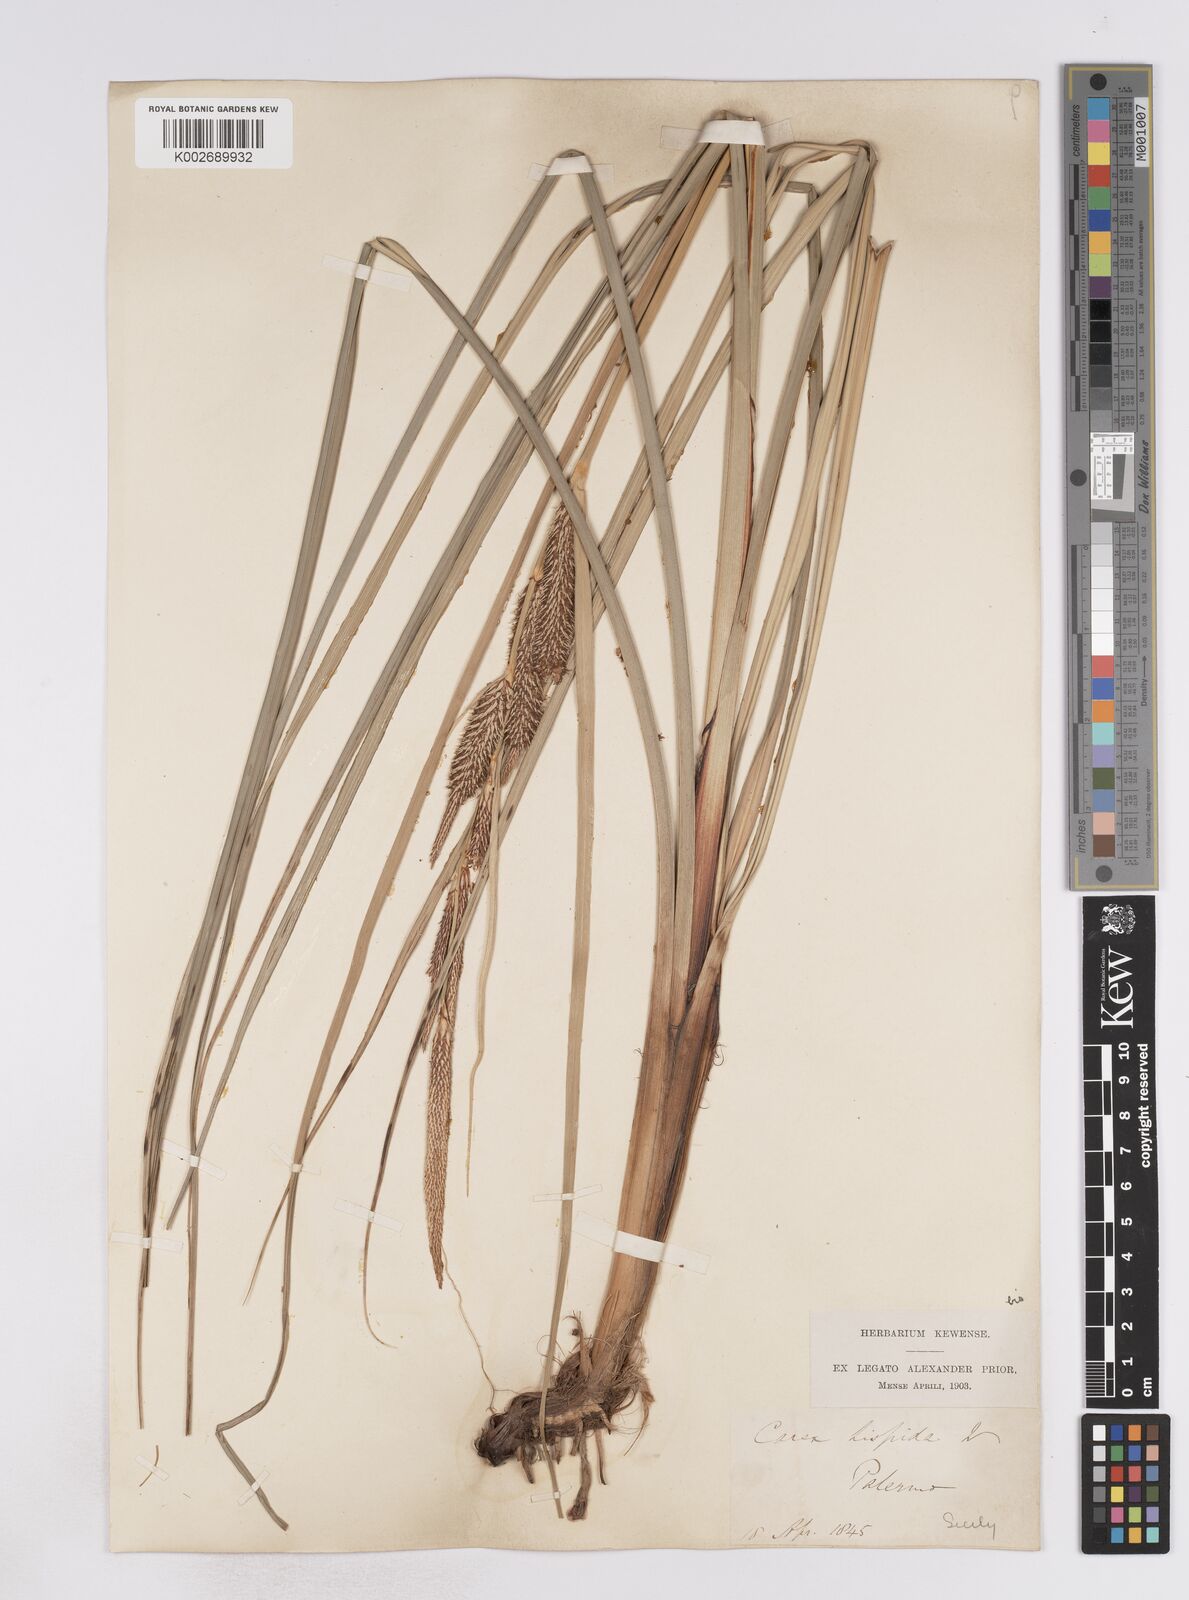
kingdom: Plantae
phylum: Tracheophyta
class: Liliopsida
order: Poales
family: Cyperaceae
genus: Carex
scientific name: Carex hispida
